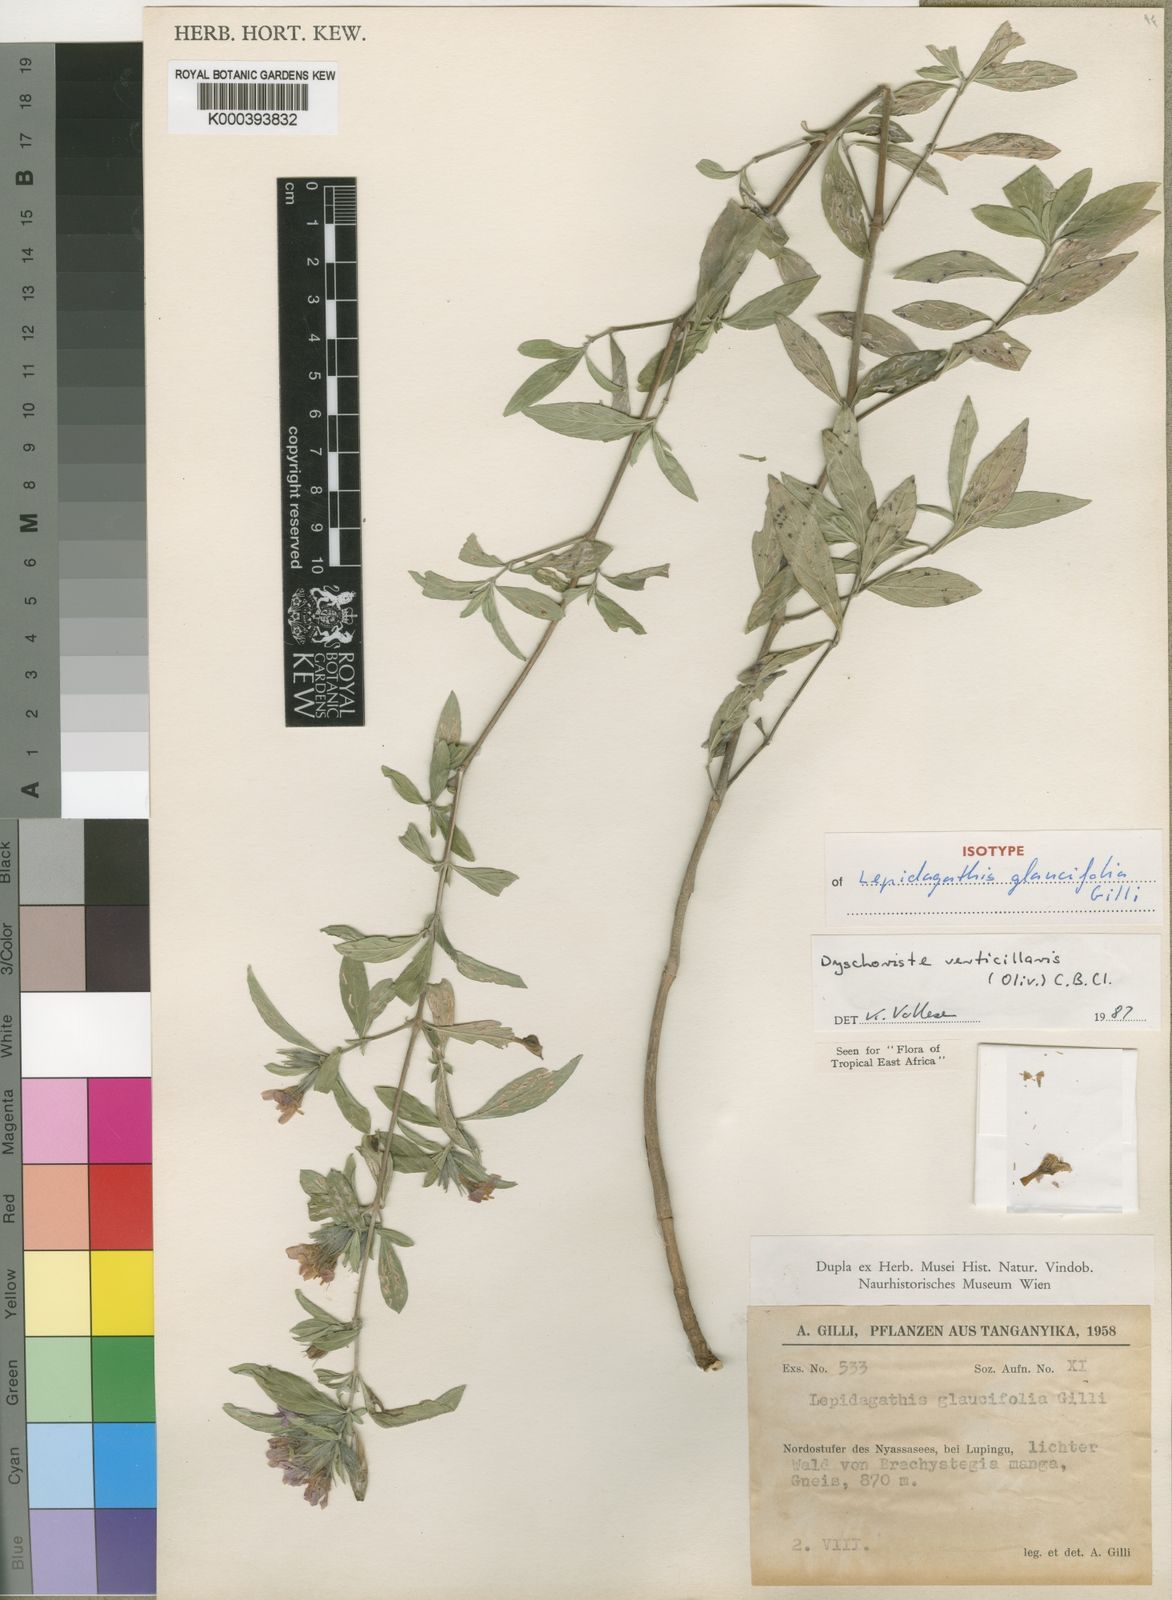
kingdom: Plantae
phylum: Tracheophyta
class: Magnoliopsida
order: Lamiales
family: Acanthaceae
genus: Dyschoriste
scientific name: Dyschoriste trichocalyx
